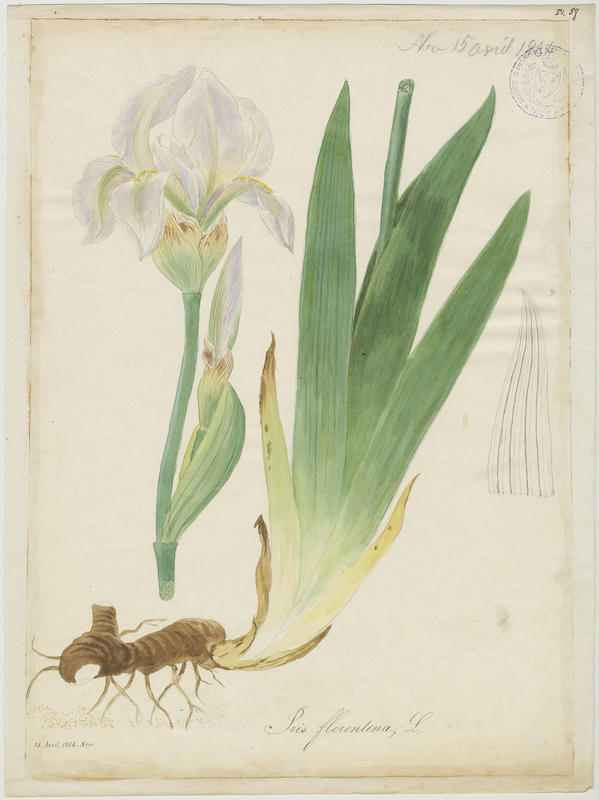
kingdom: Plantae
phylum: Tracheophyta
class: Liliopsida
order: Asparagales
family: Iridaceae
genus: Iris
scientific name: Iris florentina
